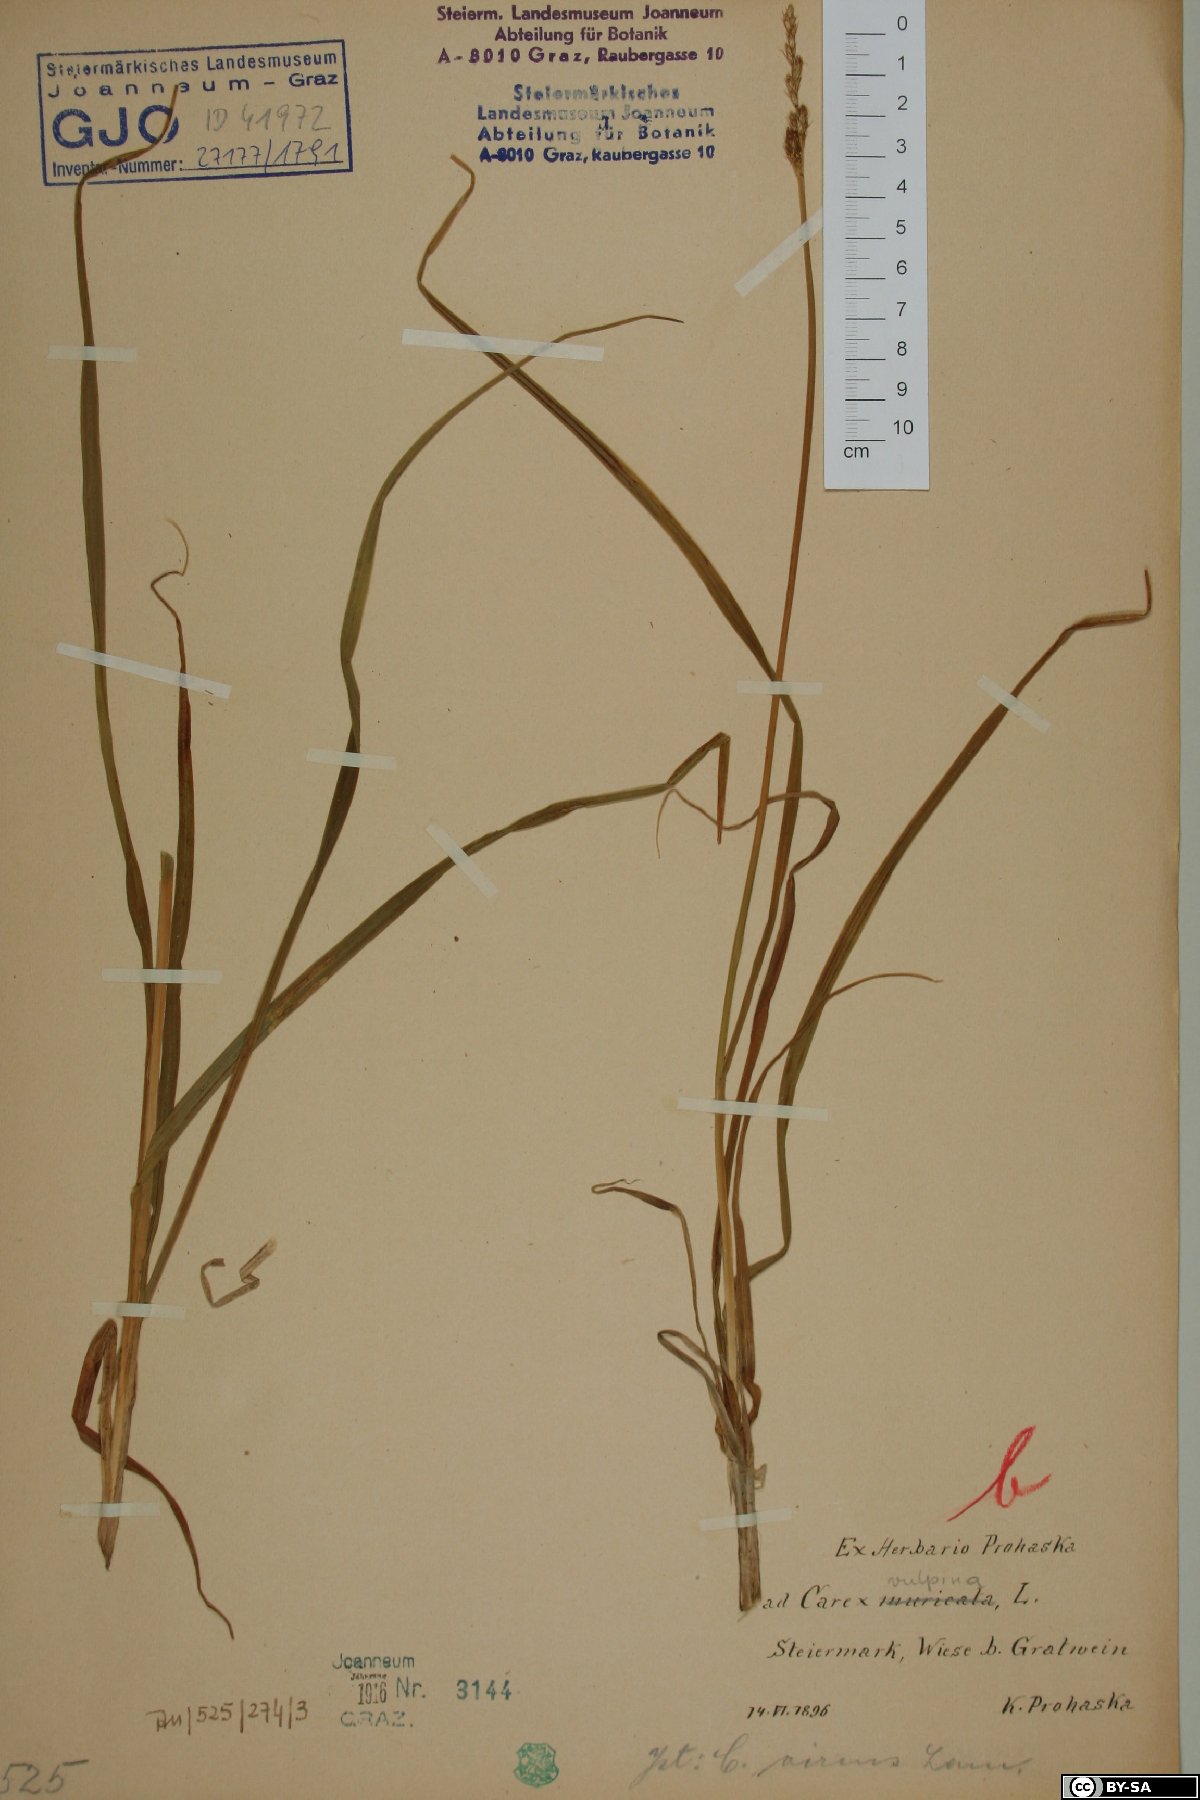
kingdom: Plantae
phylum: Tracheophyta
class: Liliopsida
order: Poales
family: Cyperaceae
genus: Carex
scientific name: Carex vulpina
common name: True fox-sedge
